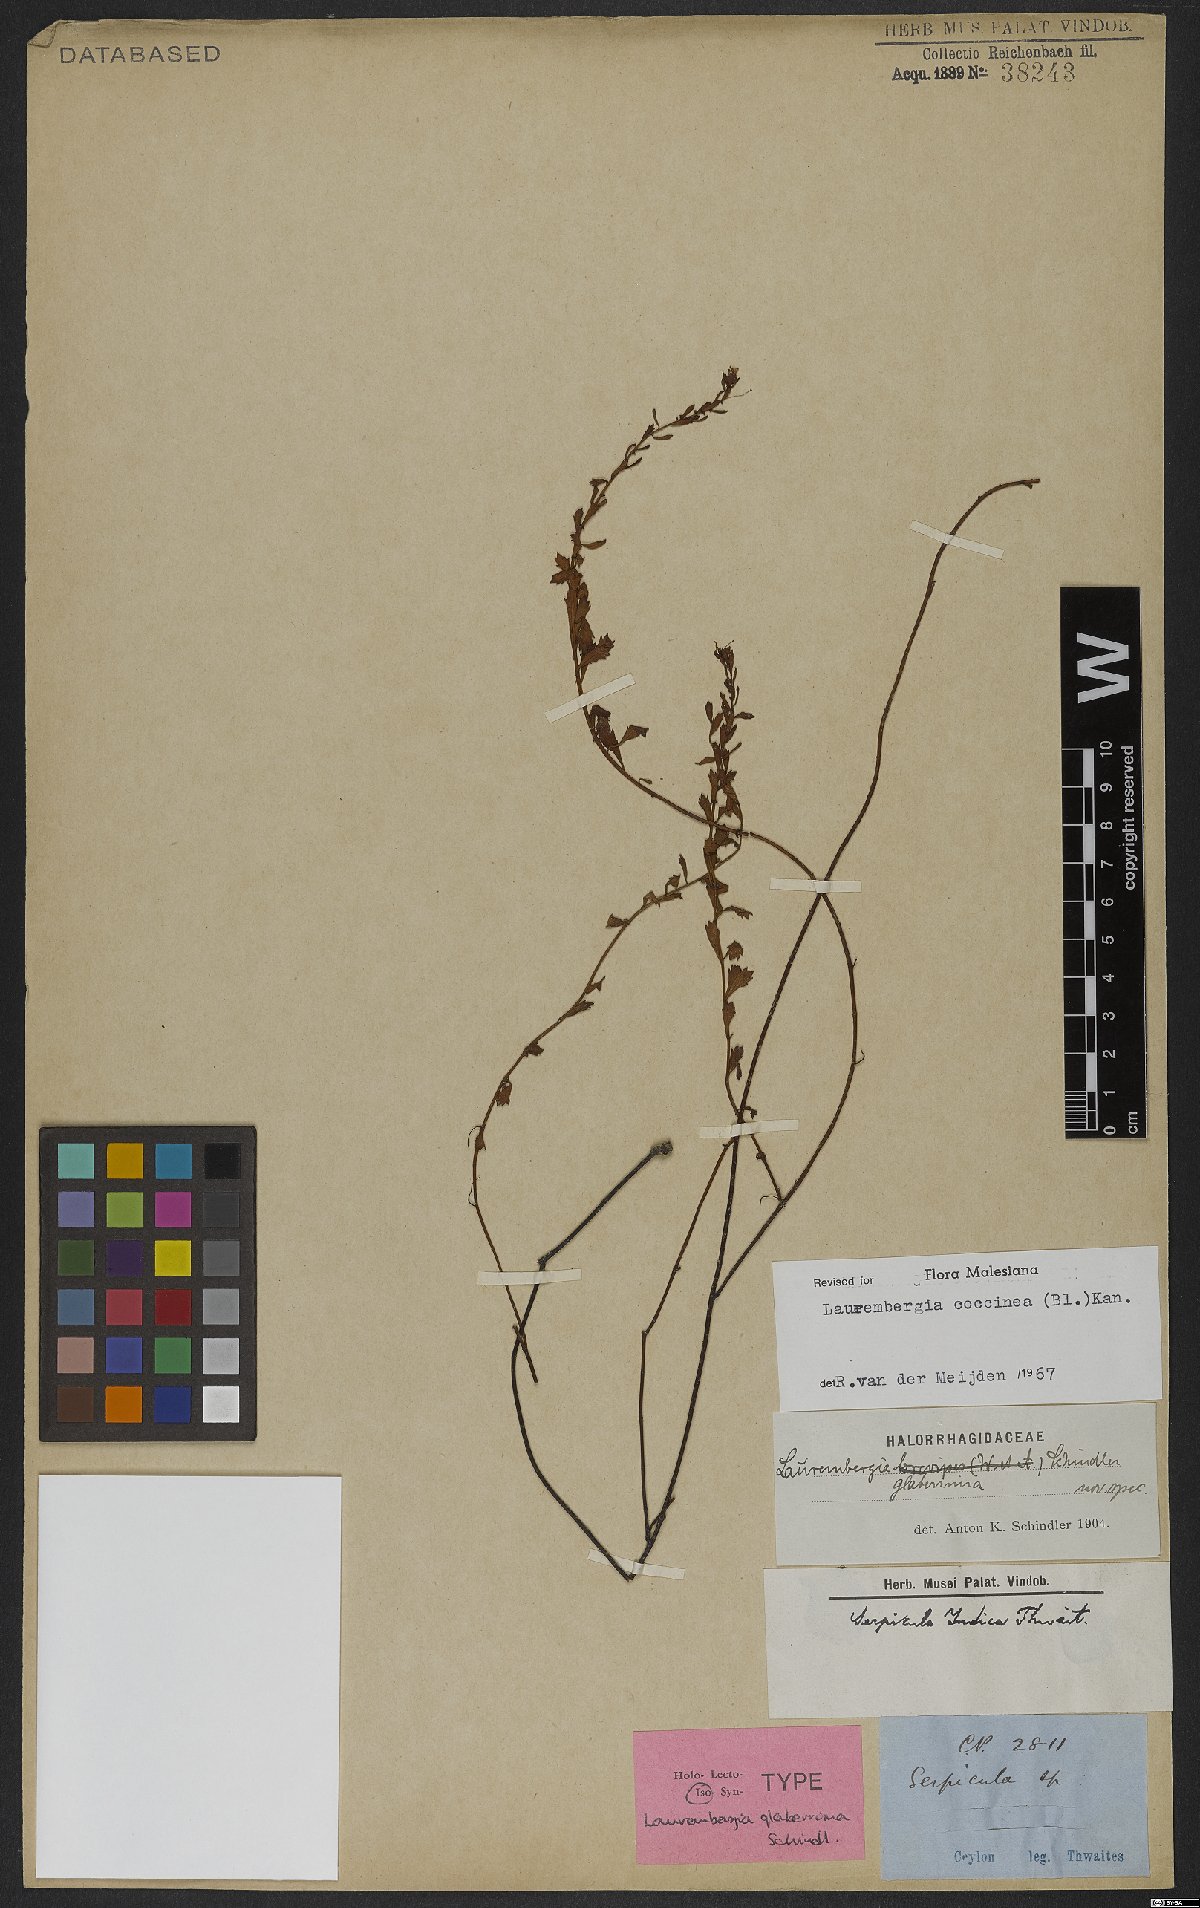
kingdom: Plantae
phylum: Tracheophyta
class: Magnoliopsida
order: Saxifragales
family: Haloragaceae
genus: Laurembergia
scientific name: Laurembergia coccinea
